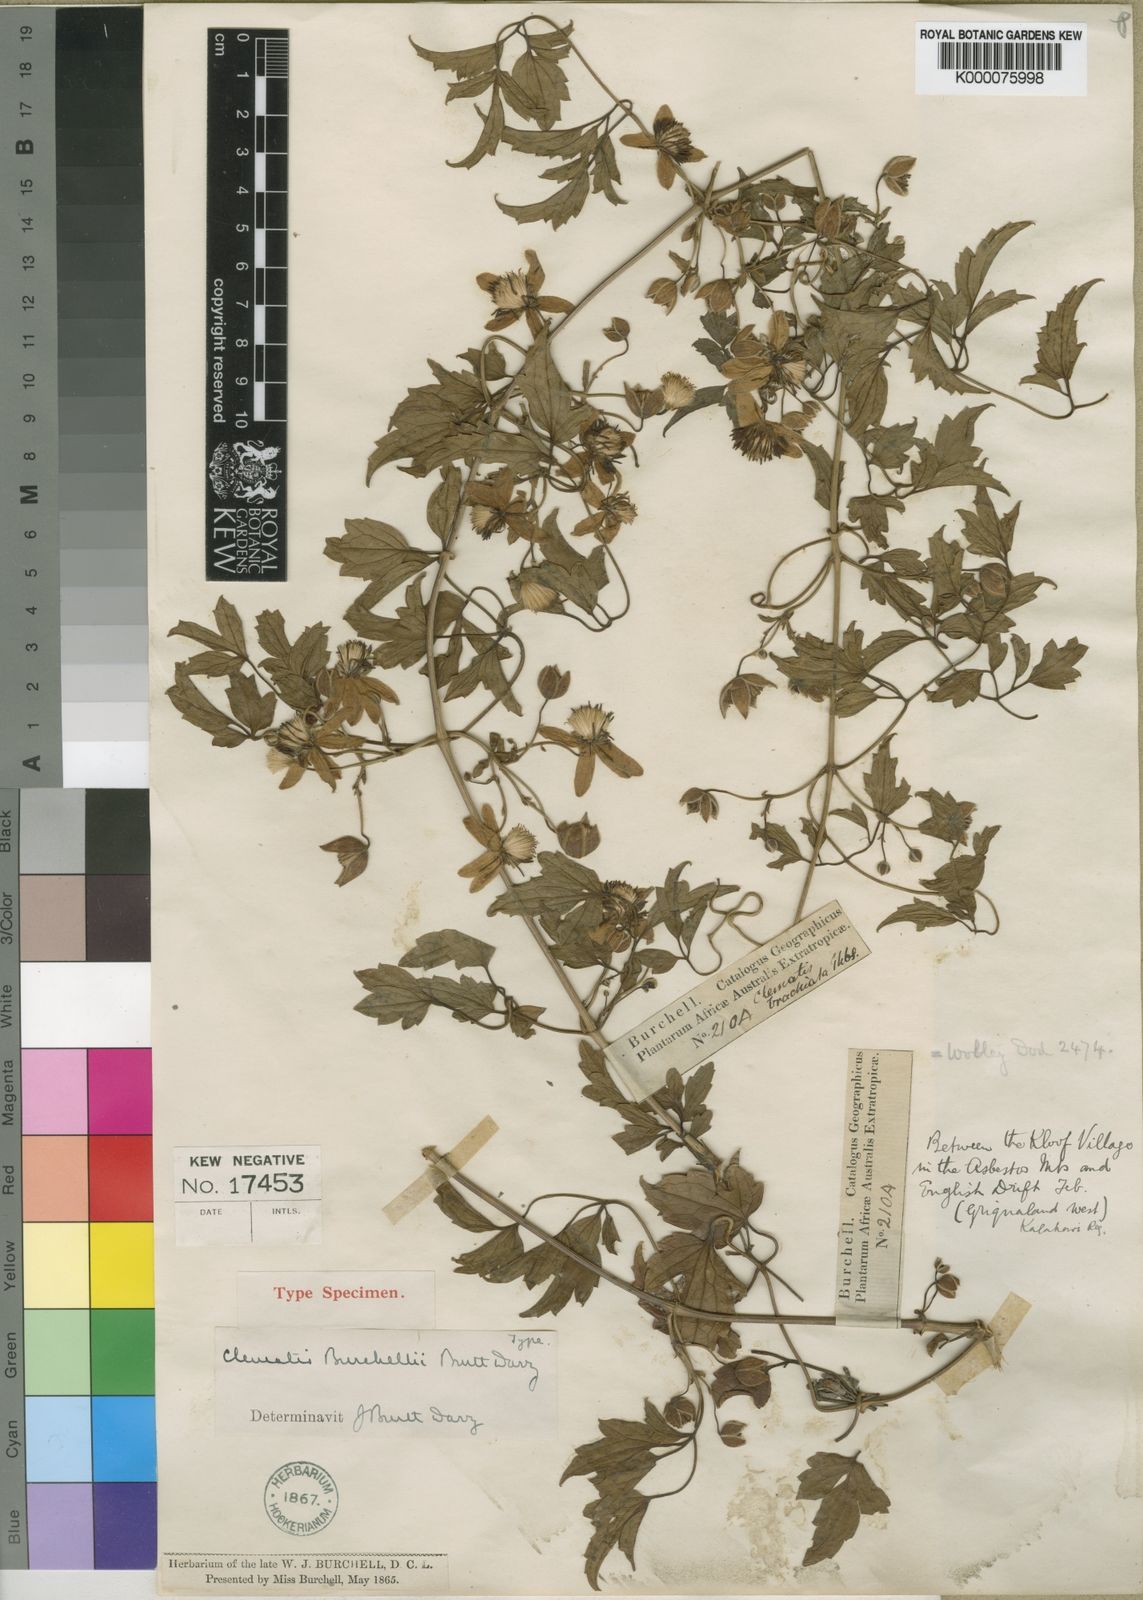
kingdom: Plantae
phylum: Tracheophyta
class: Magnoliopsida
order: Ranunculales
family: Ranunculaceae
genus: Clematis
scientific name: Clematis
